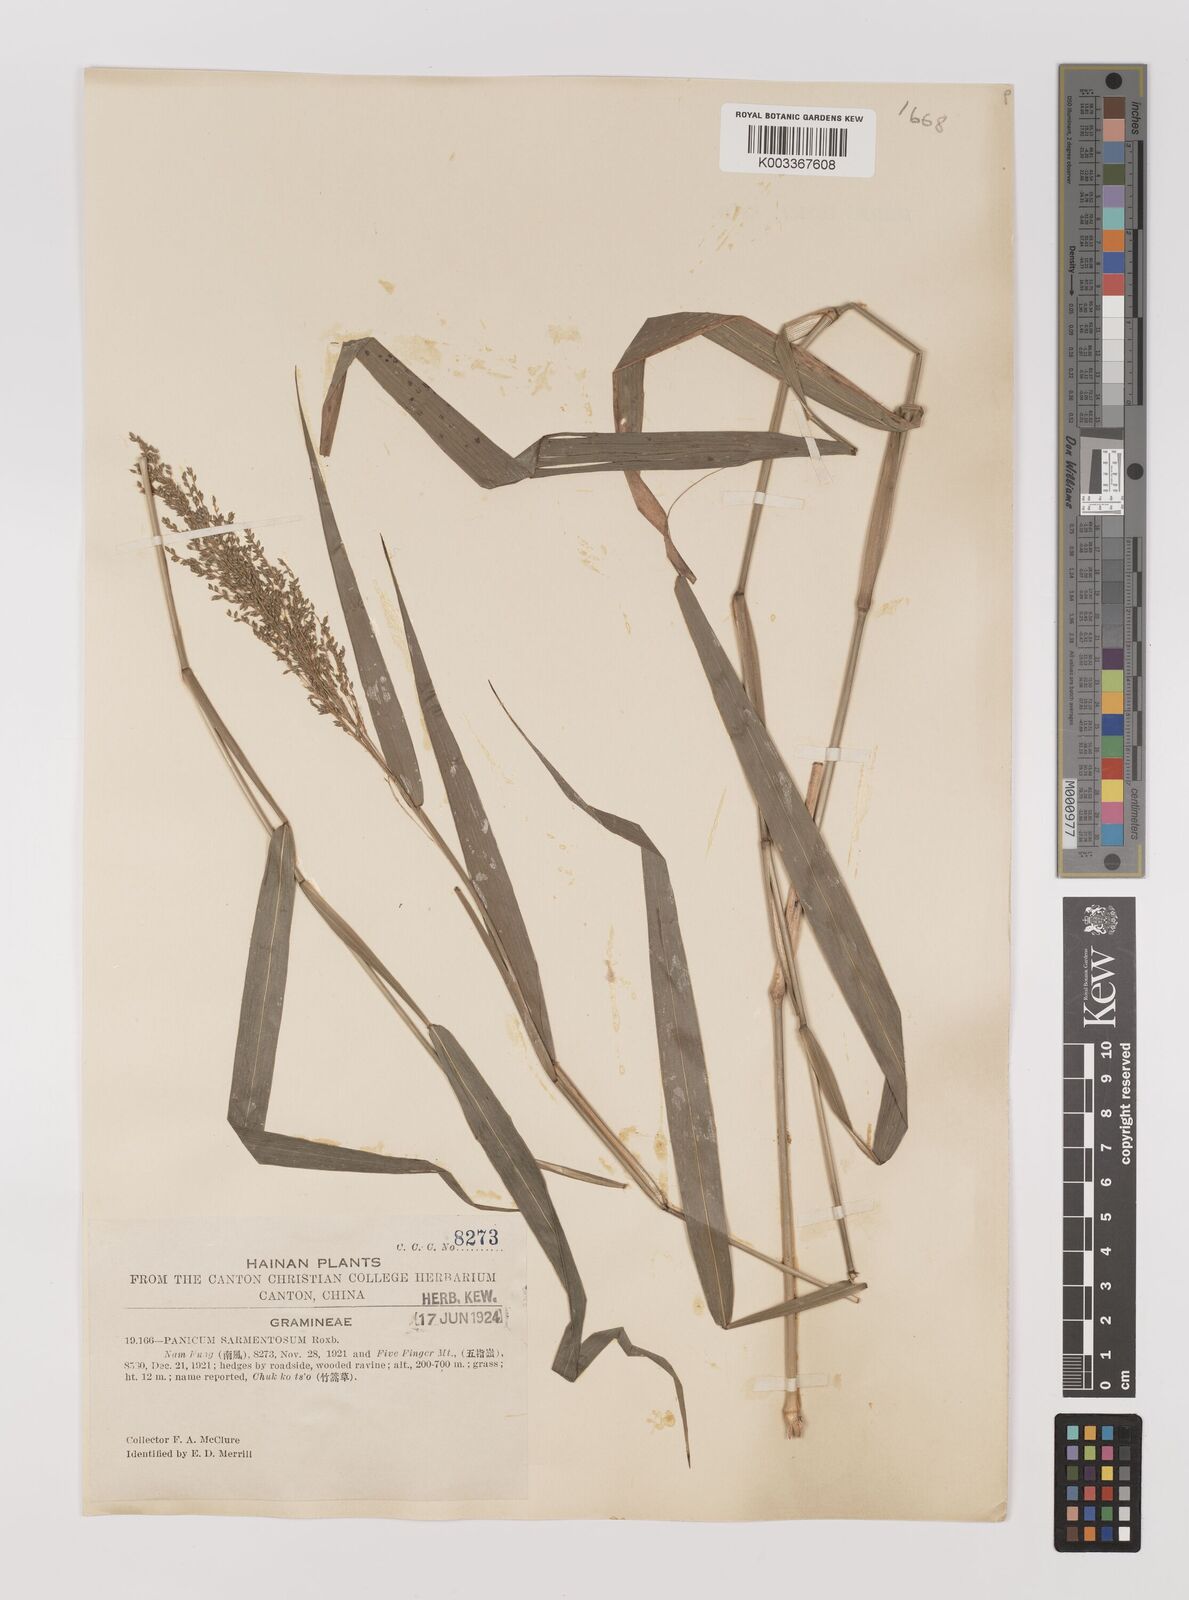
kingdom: Plantae
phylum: Tracheophyta
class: Liliopsida
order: Poales
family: Poaceae
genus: Panicum
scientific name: Panicum sarmentosum
